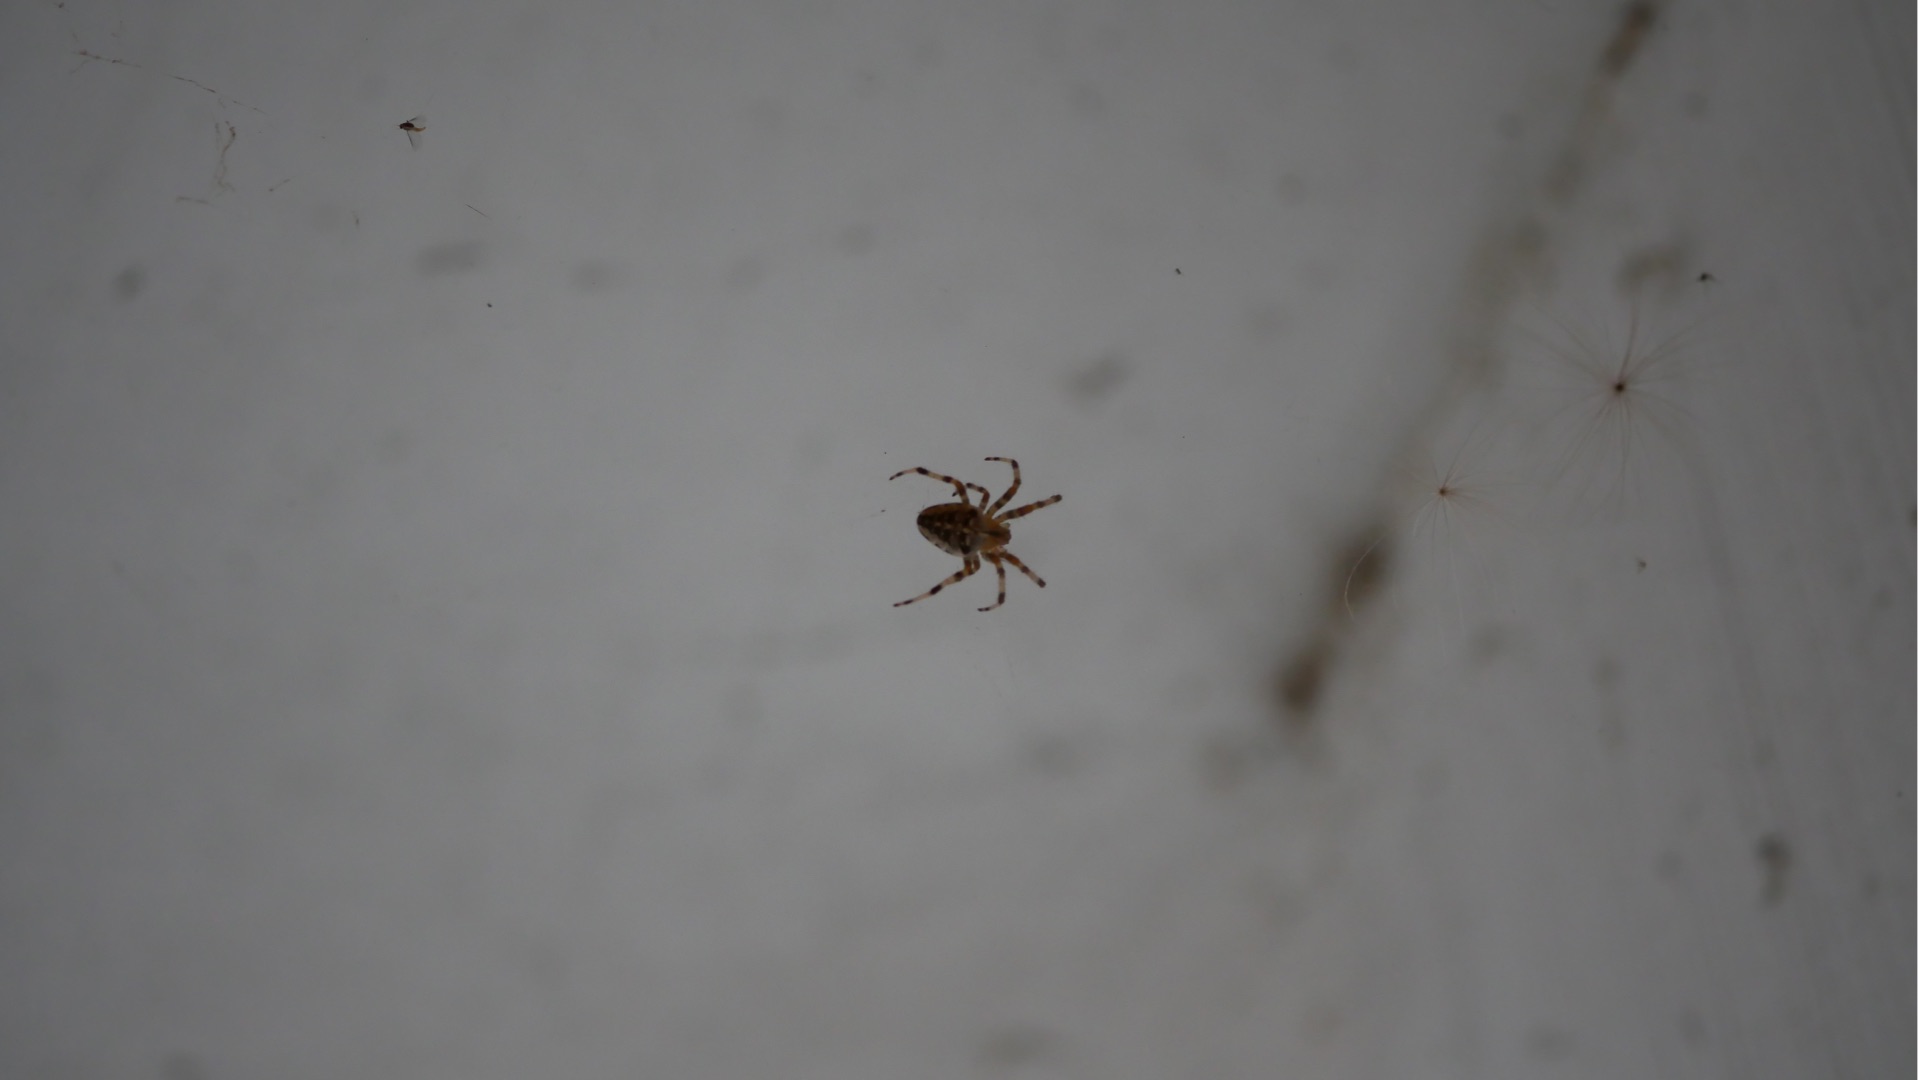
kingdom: Animalia
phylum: Arthropoda
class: Arachnida
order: Araneae
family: Araneidae
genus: Araneus
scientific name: Araneus diadematus
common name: Korsedderkop
